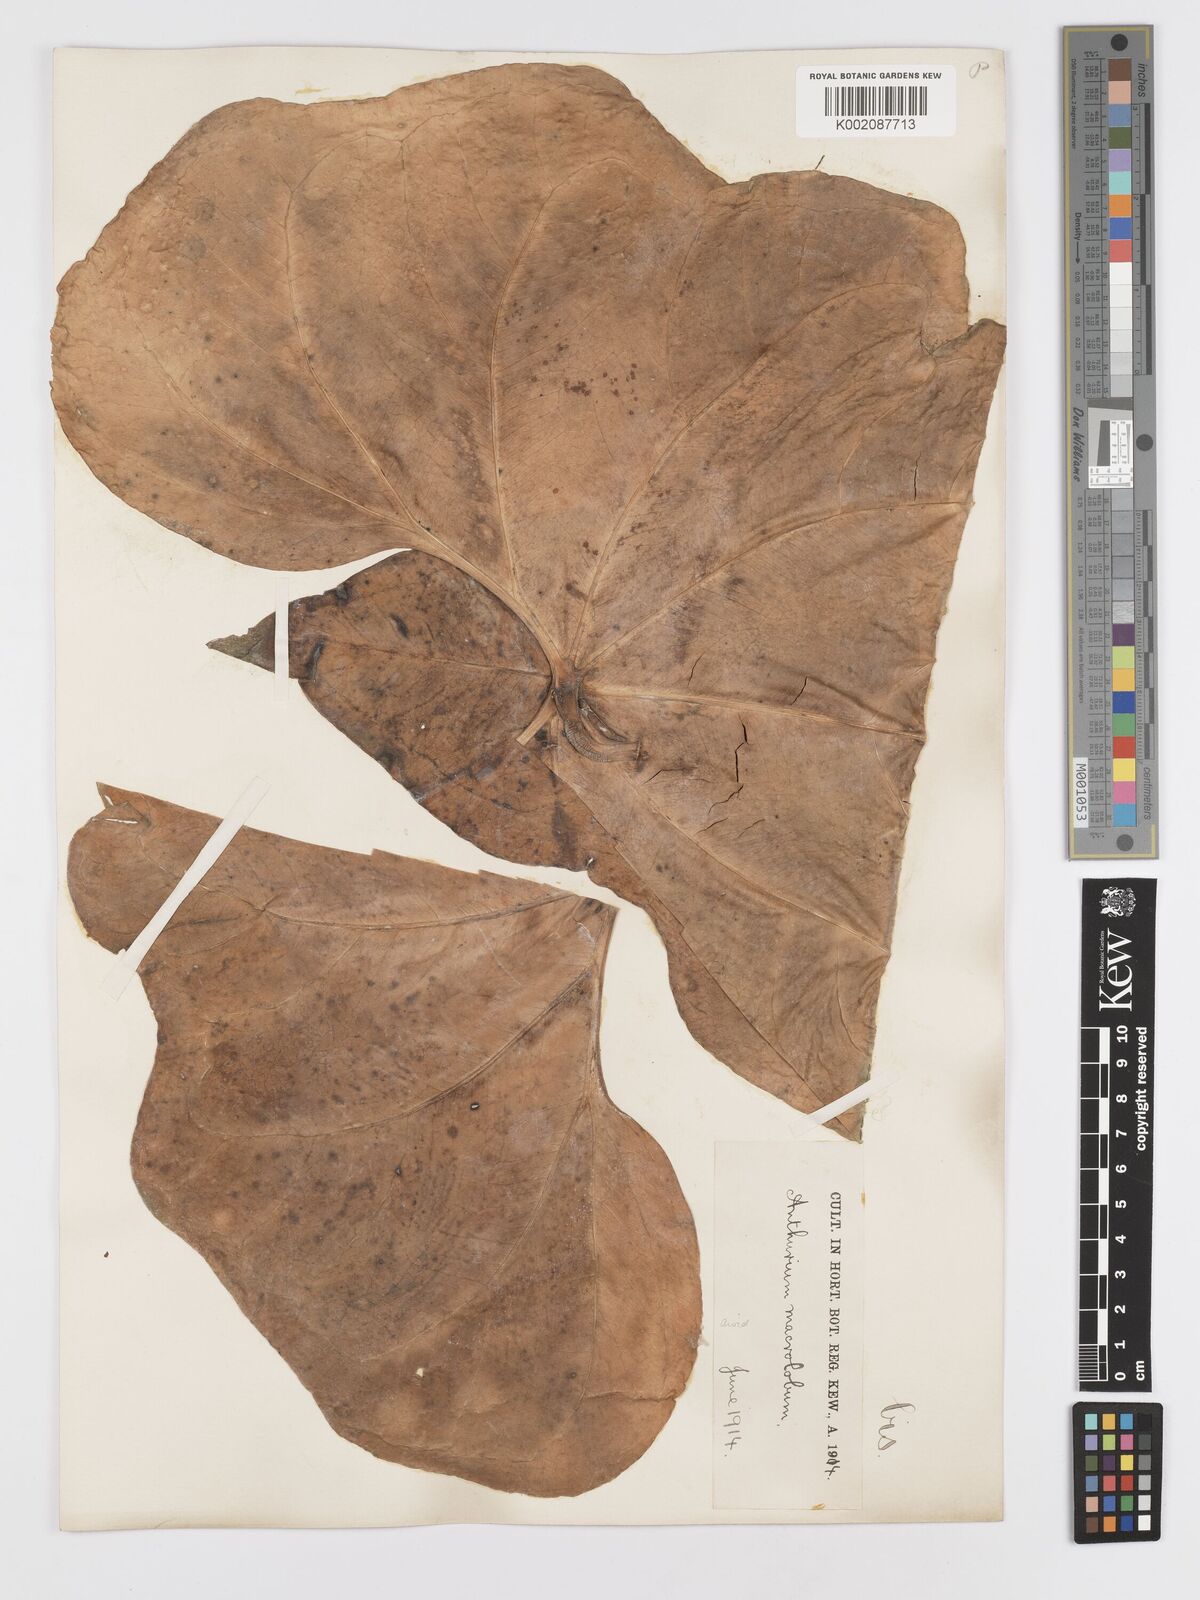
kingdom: Plantae
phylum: Tracheophyta
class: Liliopsida
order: Alismatales
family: Araceae
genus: Anthurium
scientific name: Anthurium leuconeurum
